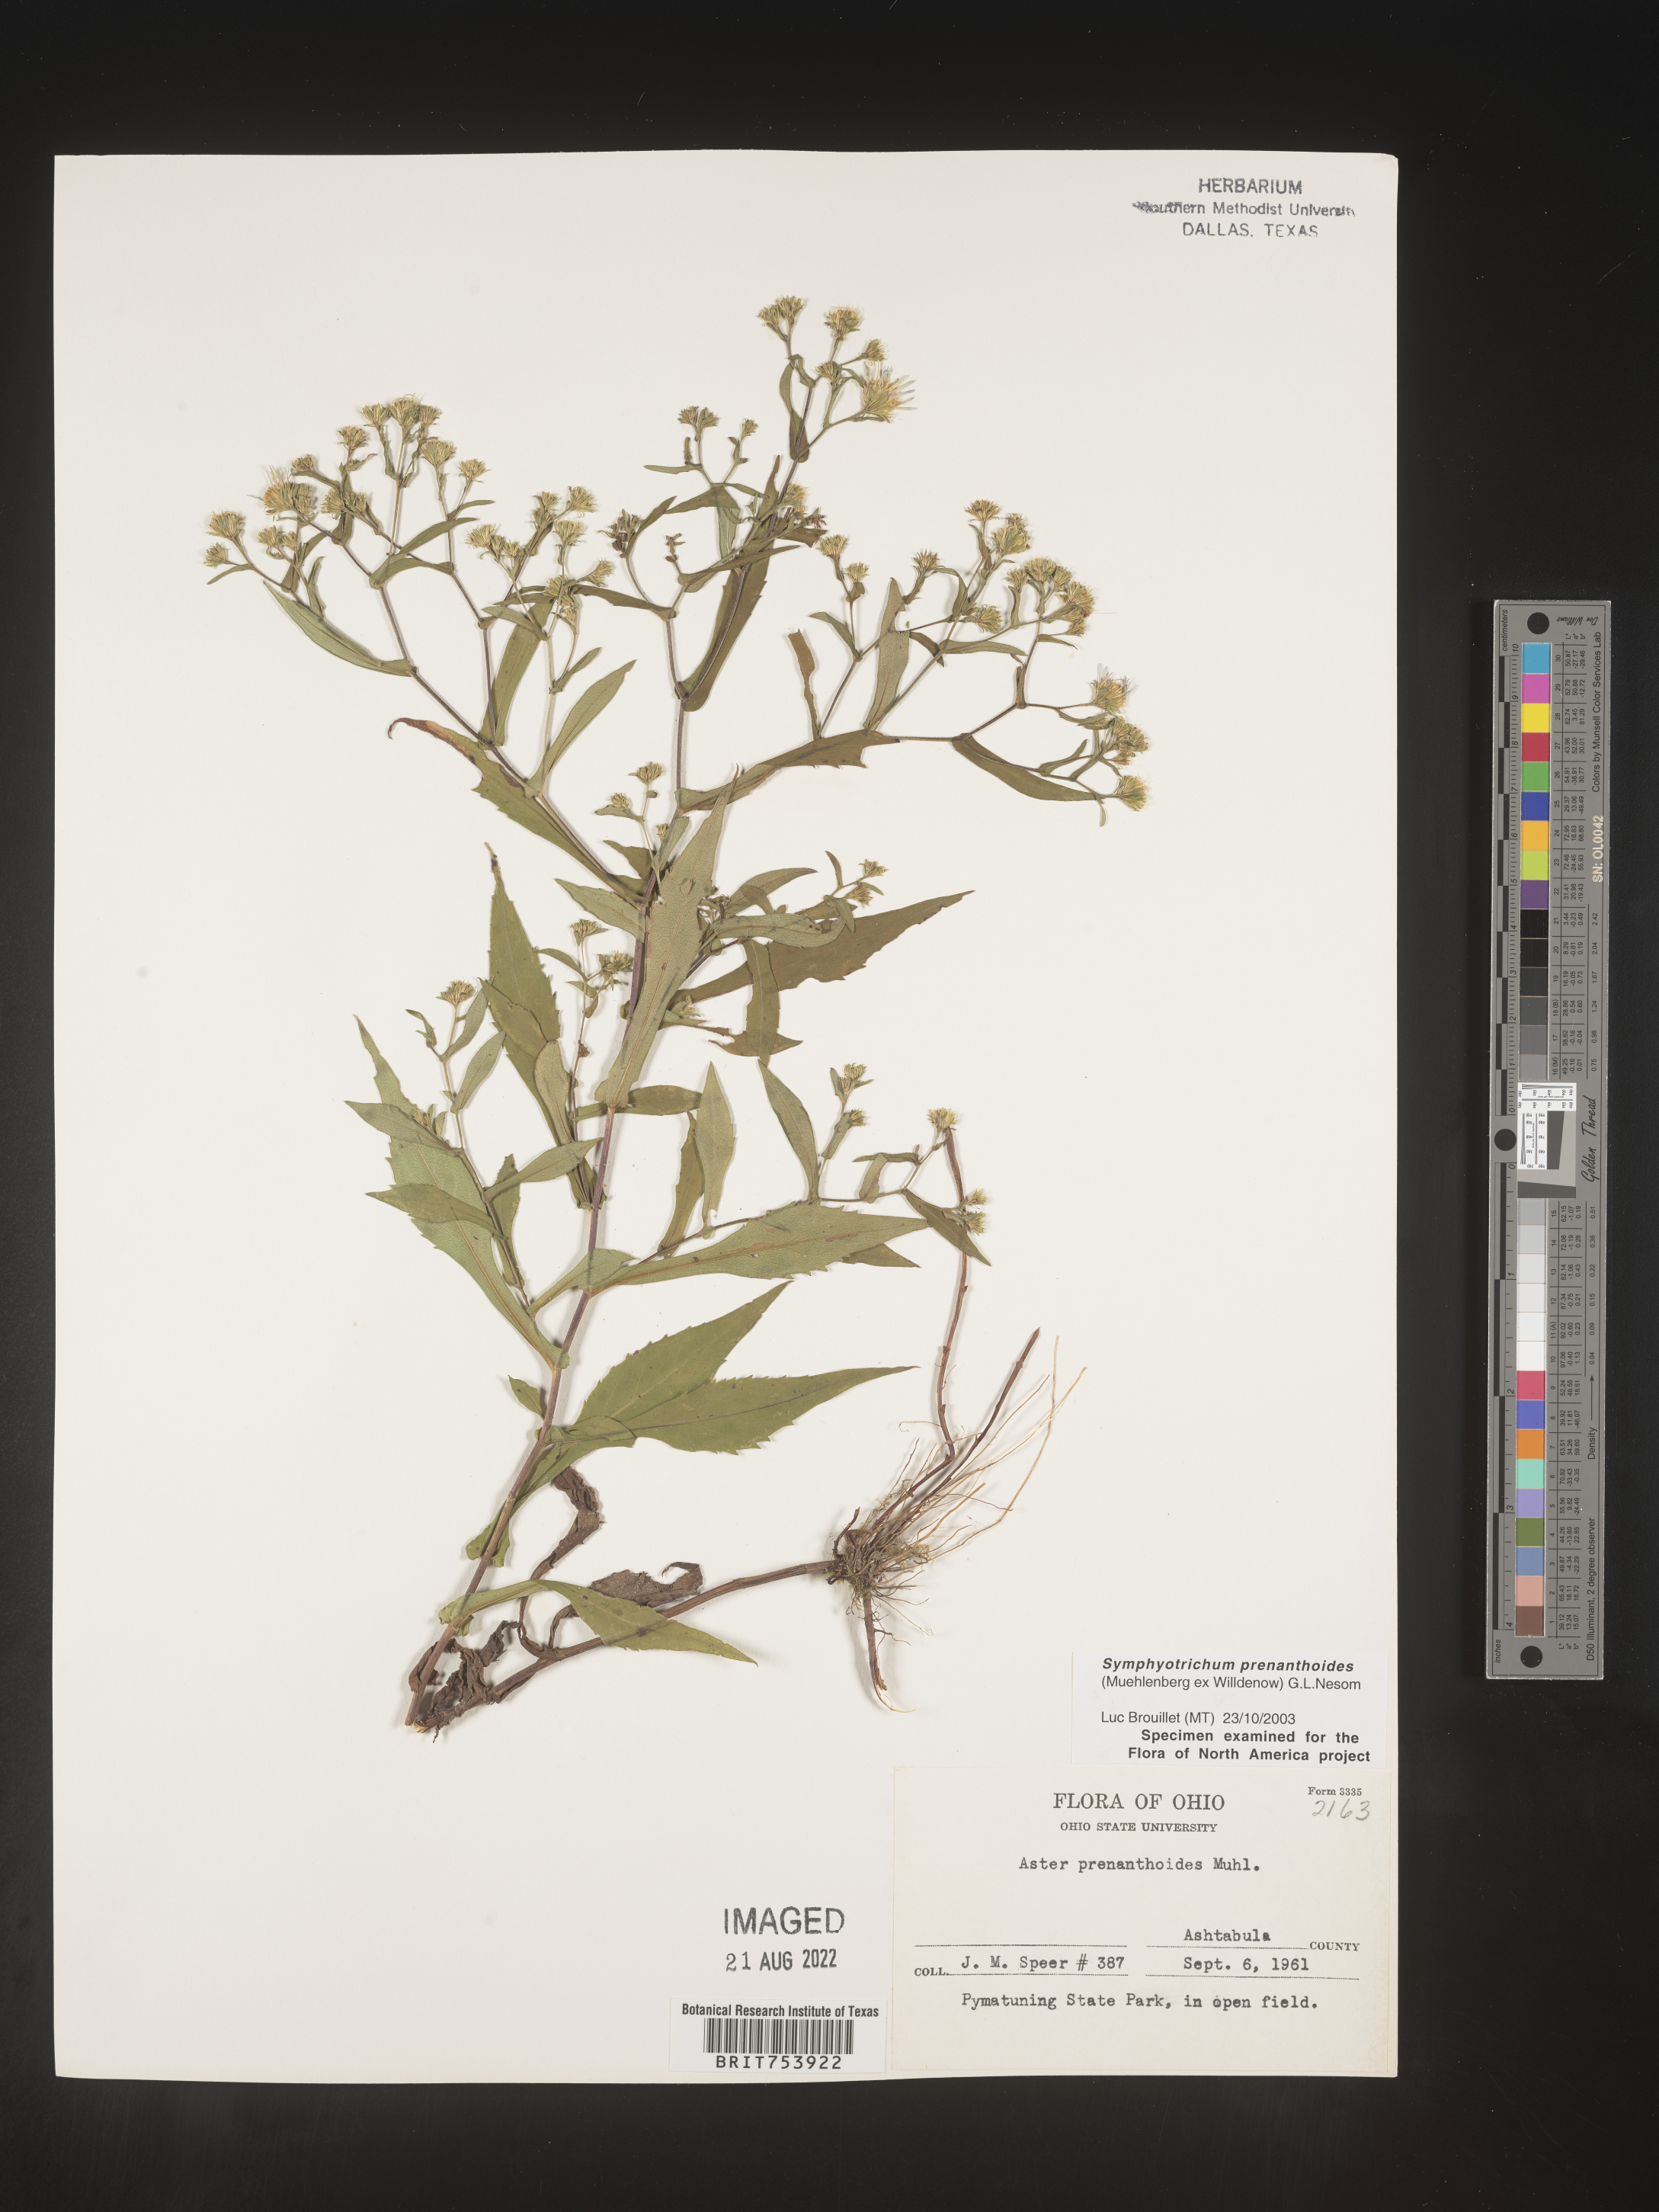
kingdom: Plantae
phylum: Tracheophyta
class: Magnoliopsida
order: Asterales
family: Asteraceae
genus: Symphyotrichum
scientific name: Symphyotrichum prenanthoides
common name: Crooked-stem aster
